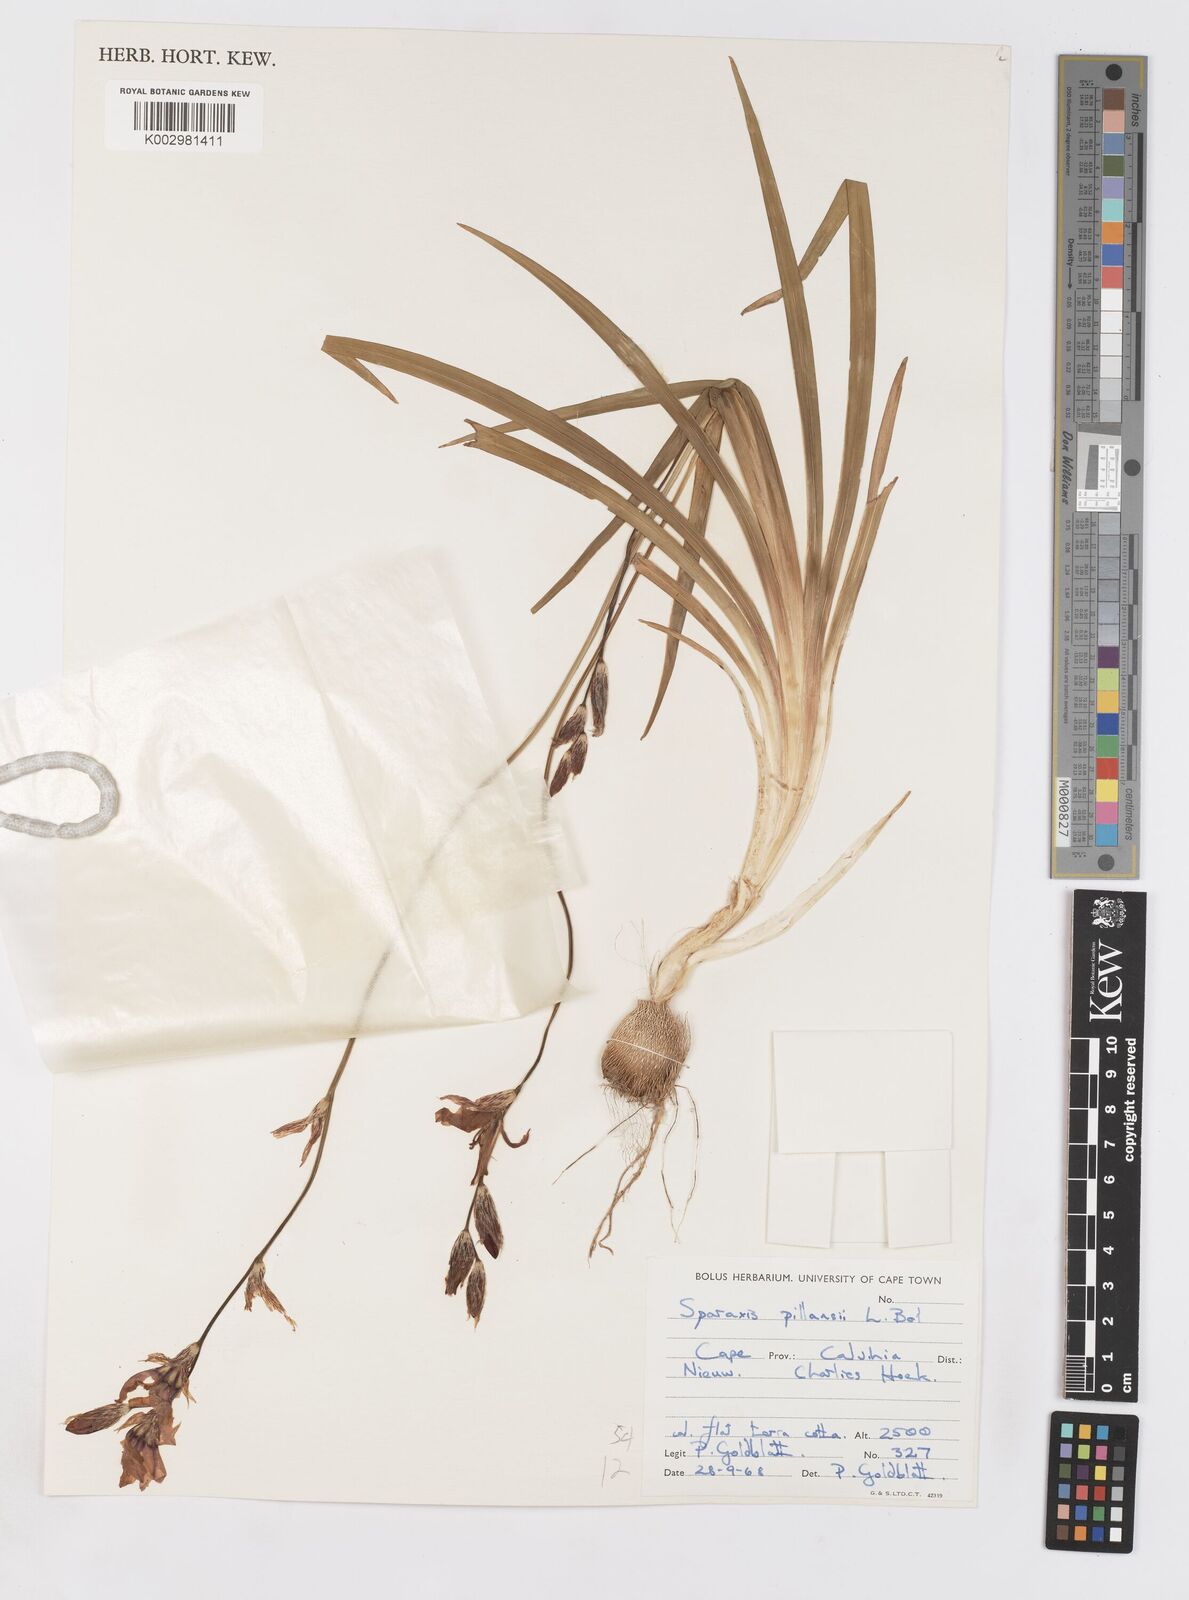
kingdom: Plantae
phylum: Tracheophyta
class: Liliopsida
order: Asparagales
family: Iridaceae
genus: Sparaxis
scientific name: Sparaxis pillansii
